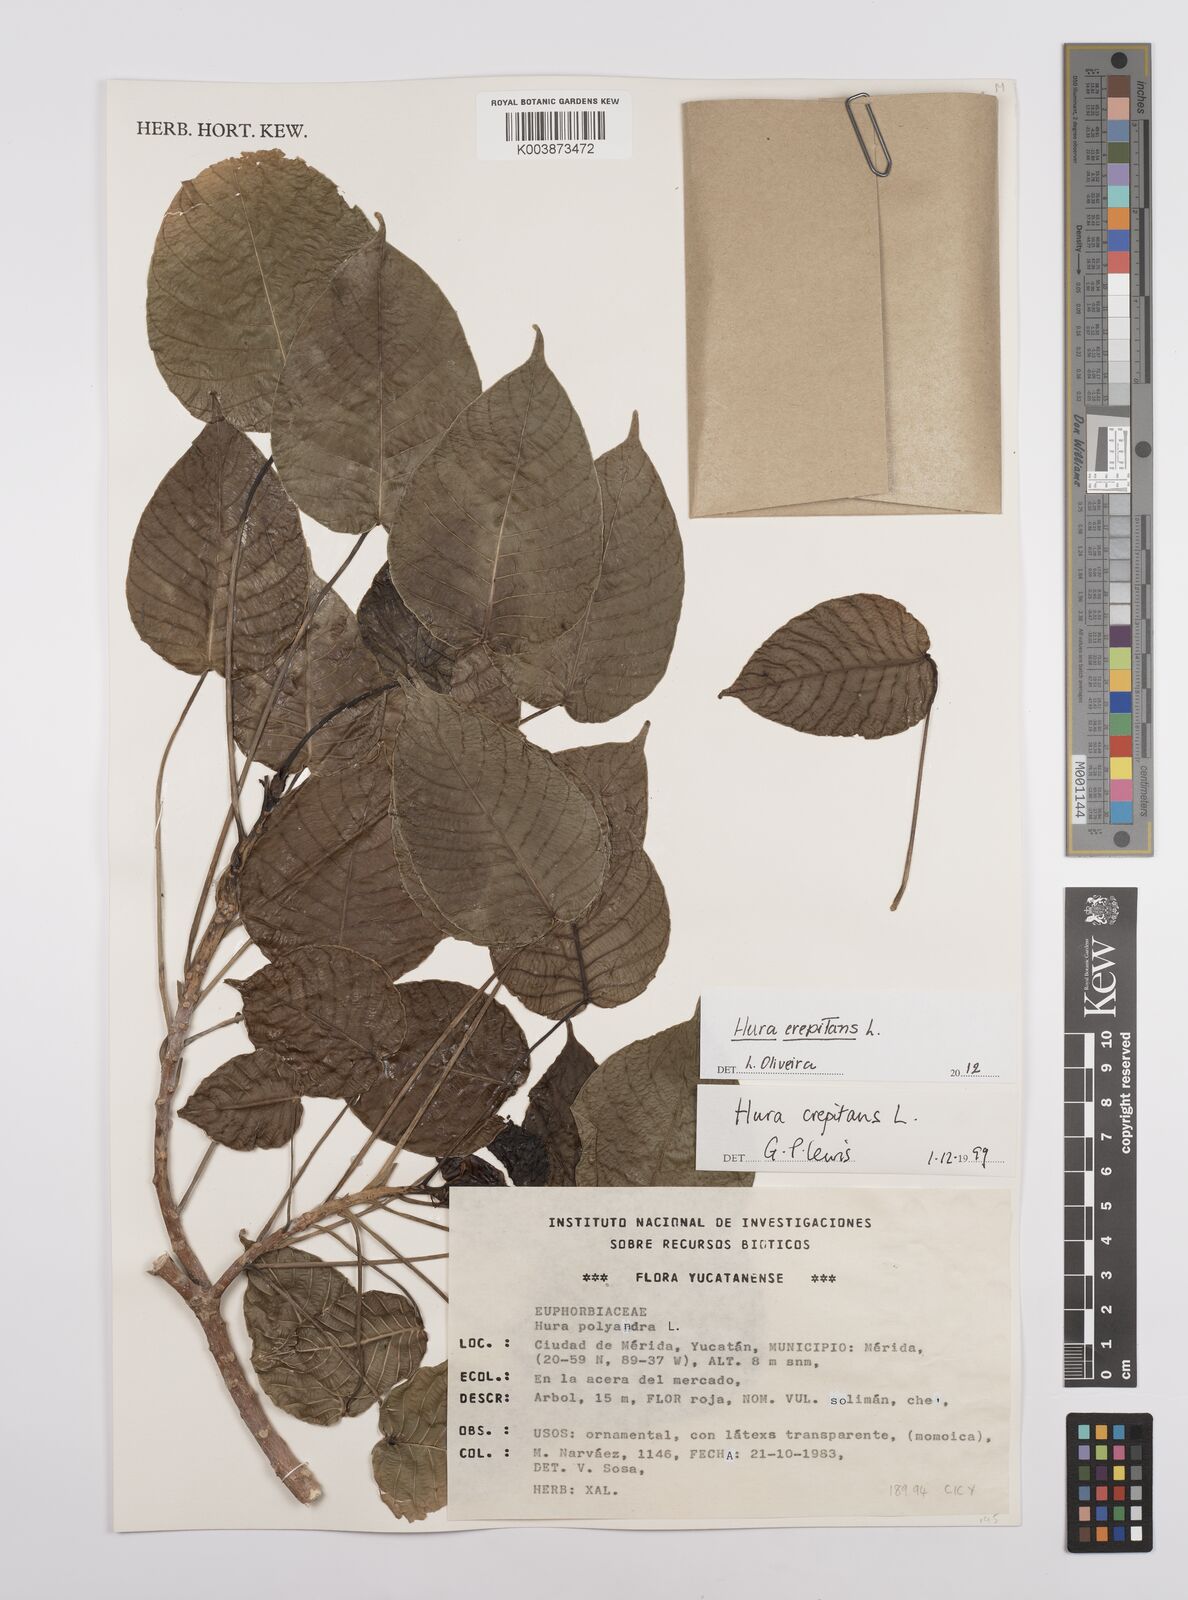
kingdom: Plantae
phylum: Tracheophyta
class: Magnoliopsida
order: Malpighiales
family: Euphorbiaceae
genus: Hura
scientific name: Hura crepitans
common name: Sandboxtree
